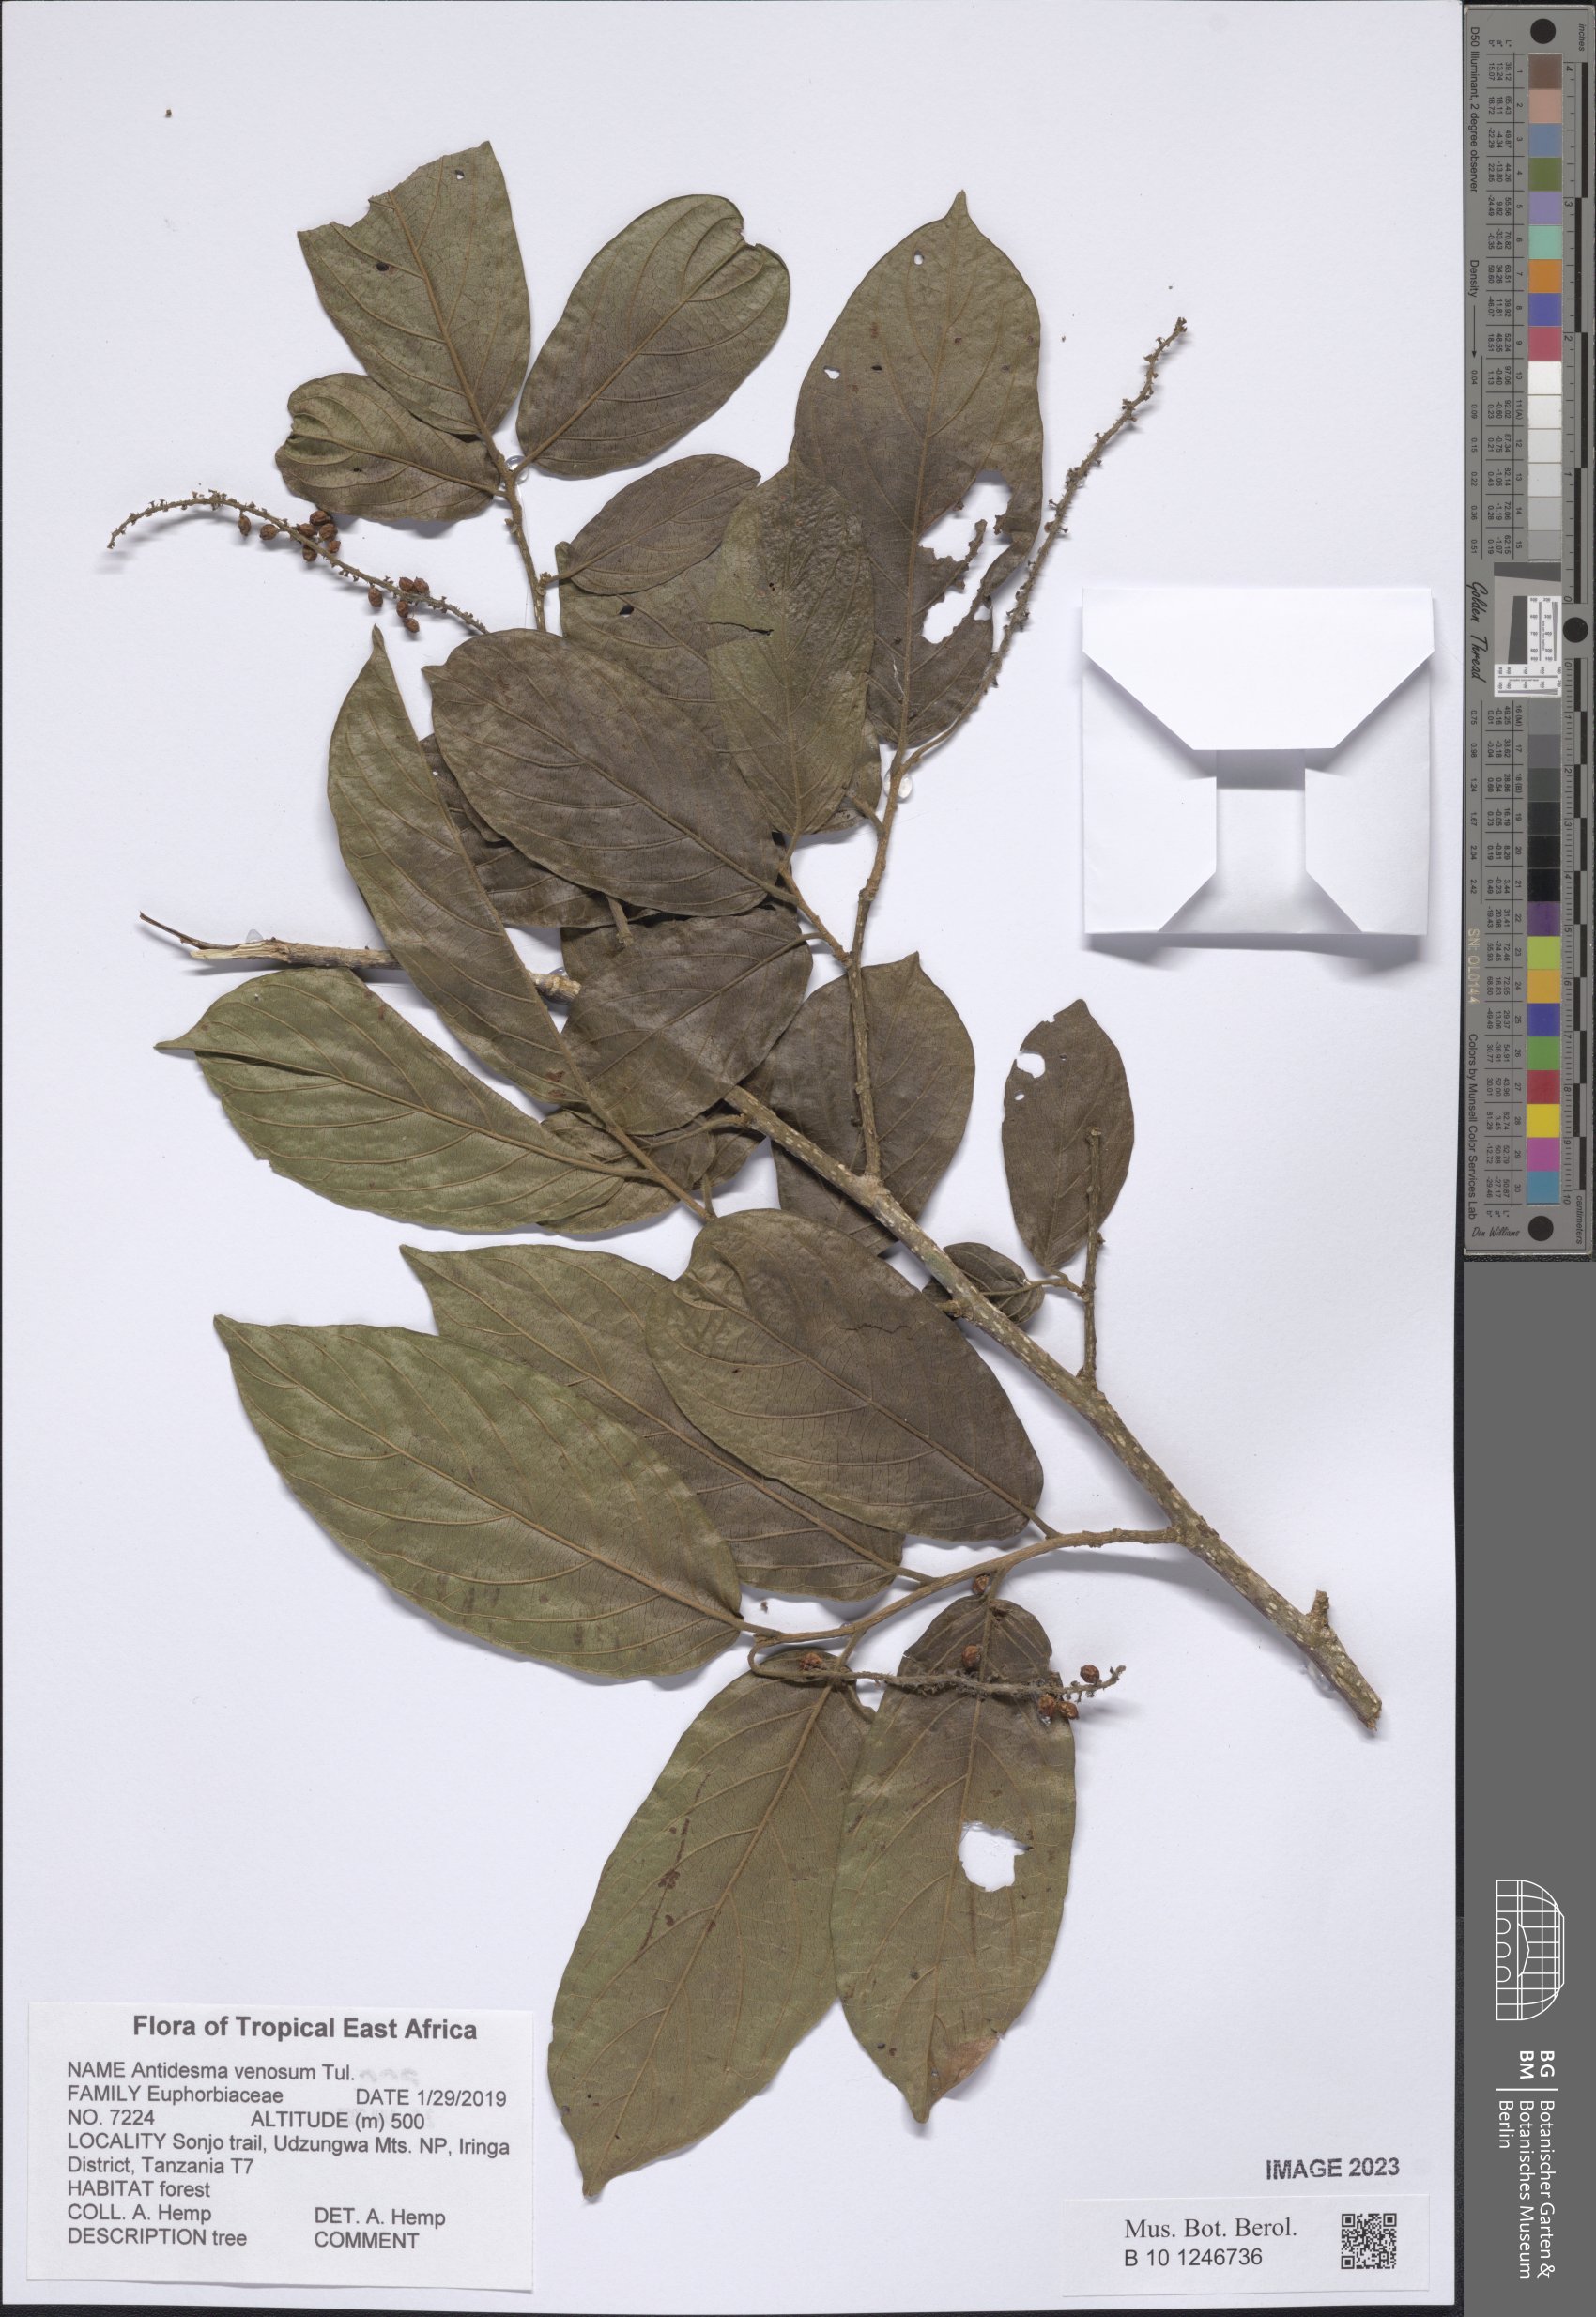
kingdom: Plantae
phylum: Tracheophyta
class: Magnoliopsida
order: Malpighiales
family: Phyllanthaceae
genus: Antidesma
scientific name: Antidesma venosum
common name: Tassel-berry
